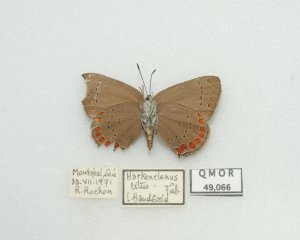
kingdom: Animalia
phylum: Arthropoda
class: Insecta
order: Lepidoptera
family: Lycaenidae
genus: Harkenclenus
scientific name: Harkenclenus titus
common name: Coral Hairstreak
